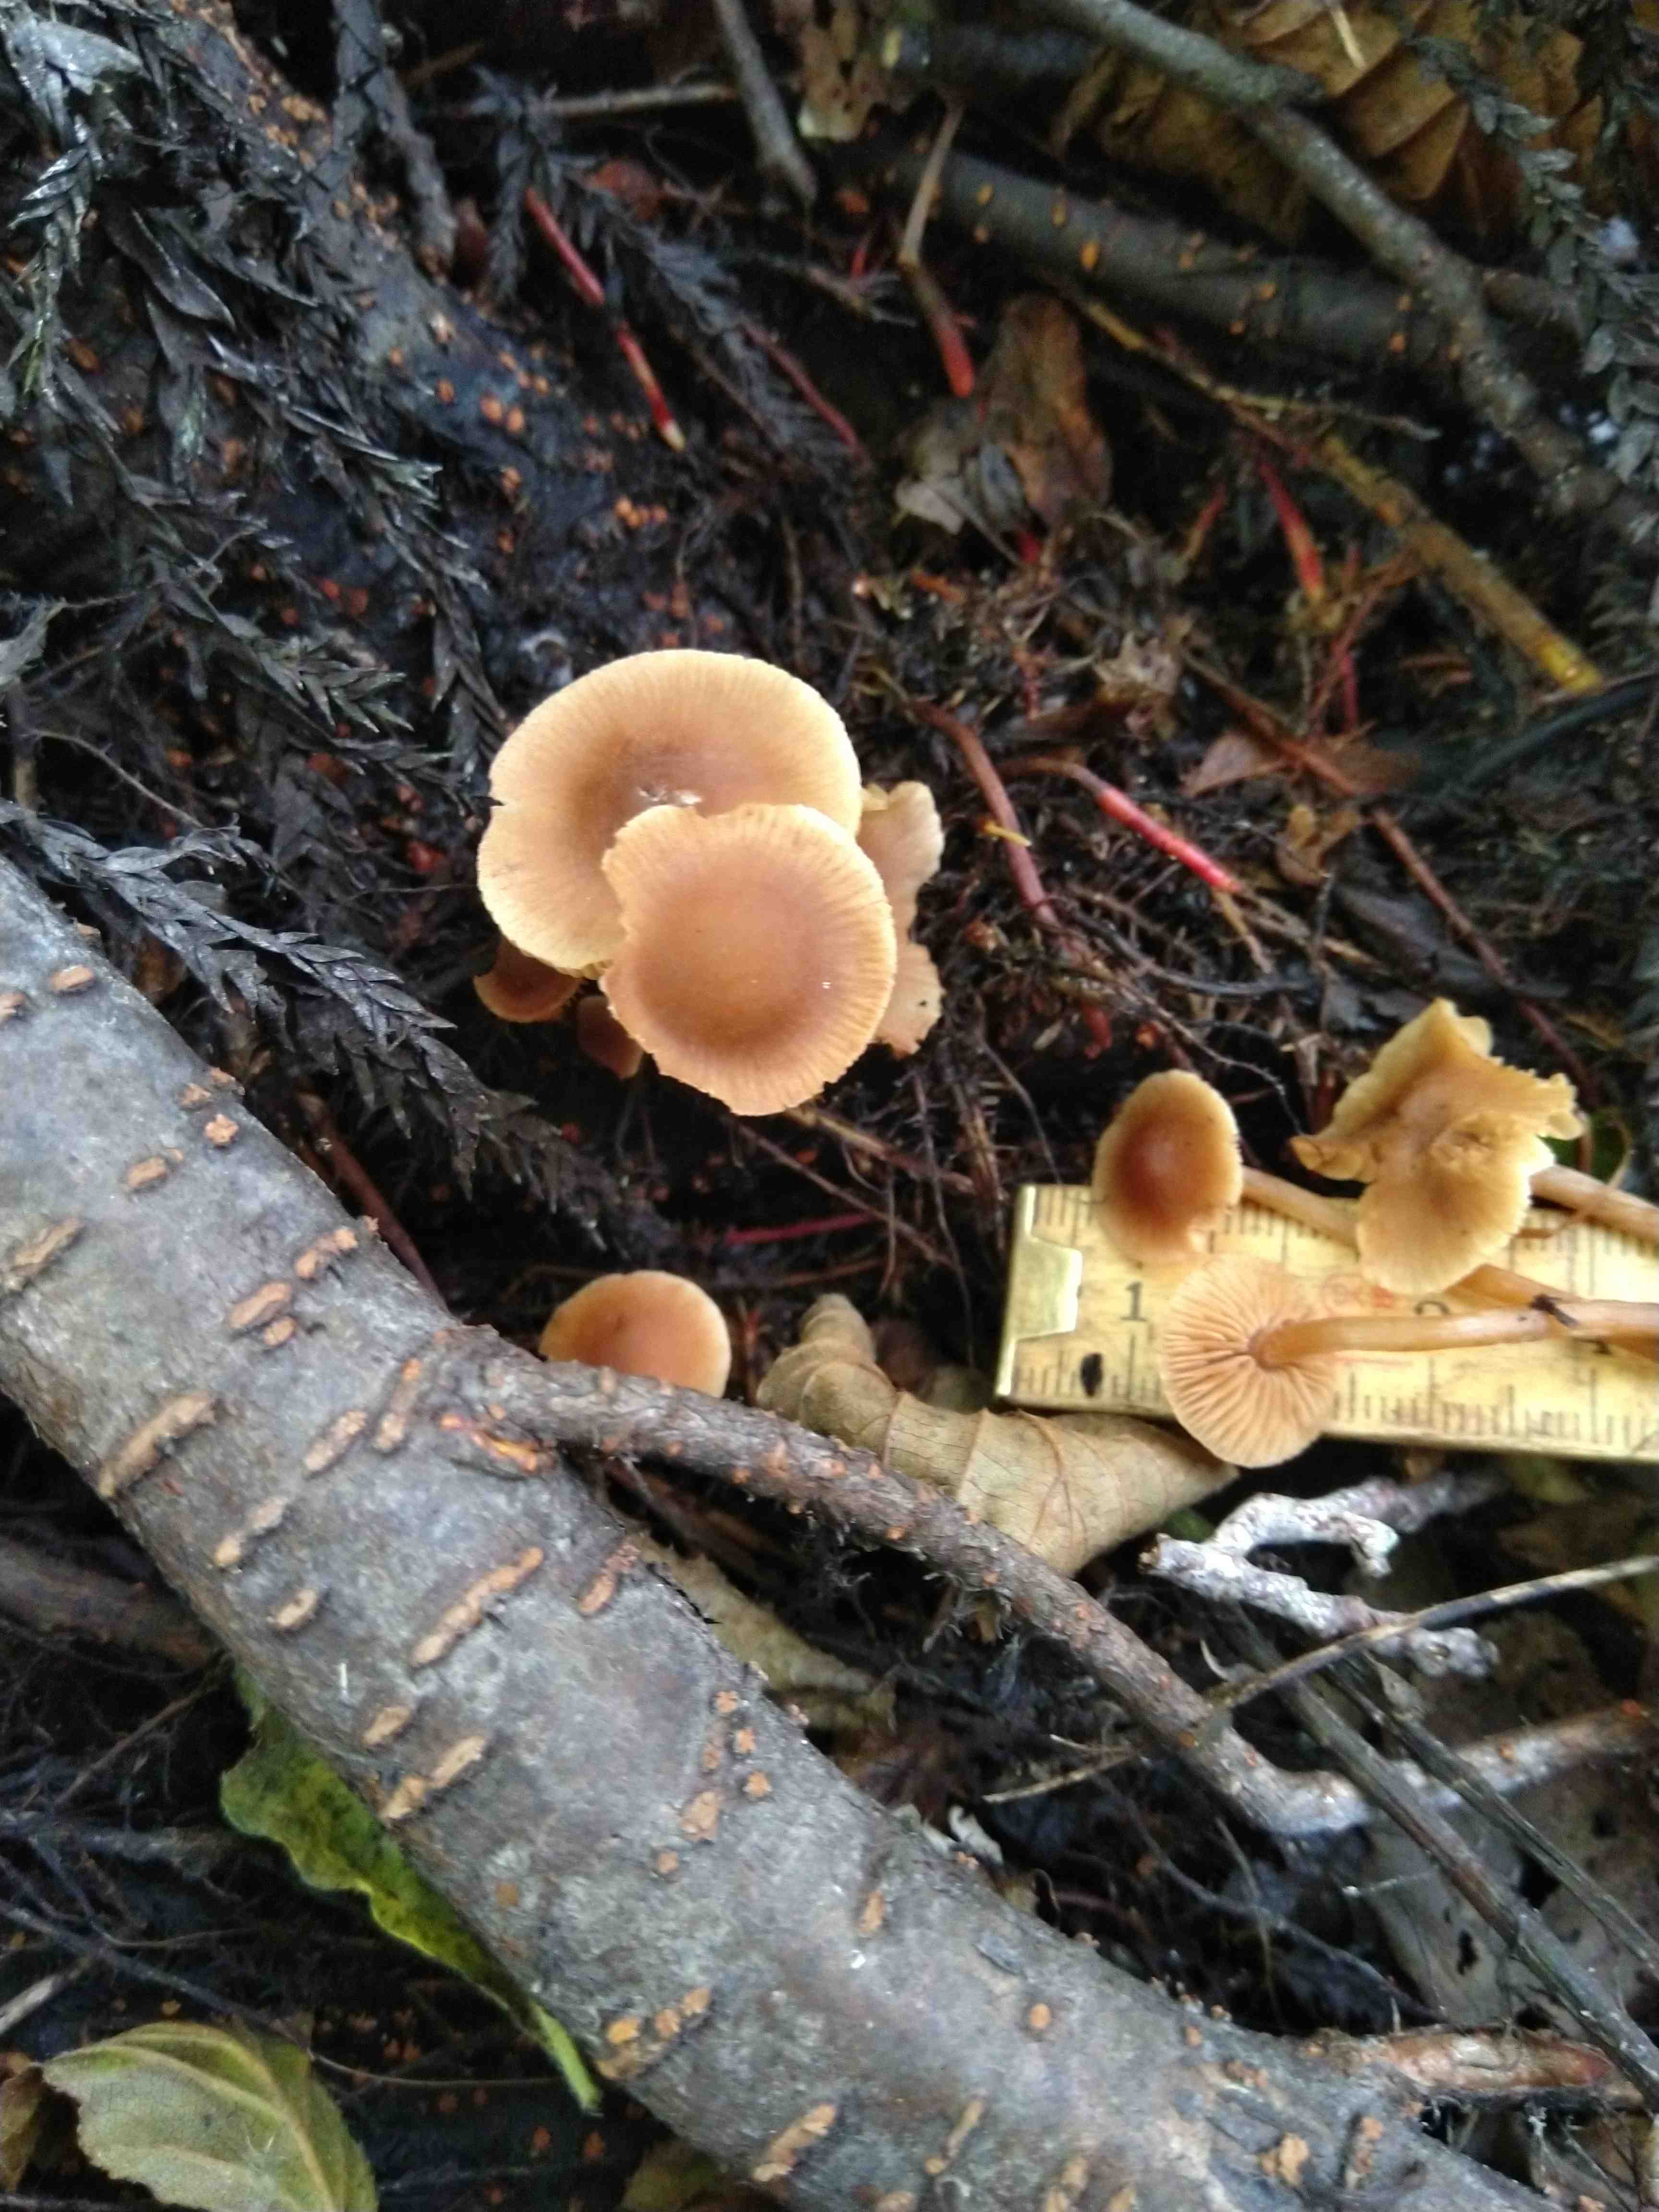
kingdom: Fungi
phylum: Basidiomycota
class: Agaricomycetes
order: Agaricales
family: Hymenogastraceae
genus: Naucoria
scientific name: Naucoria scolecina
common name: mørk elle-knaphat
